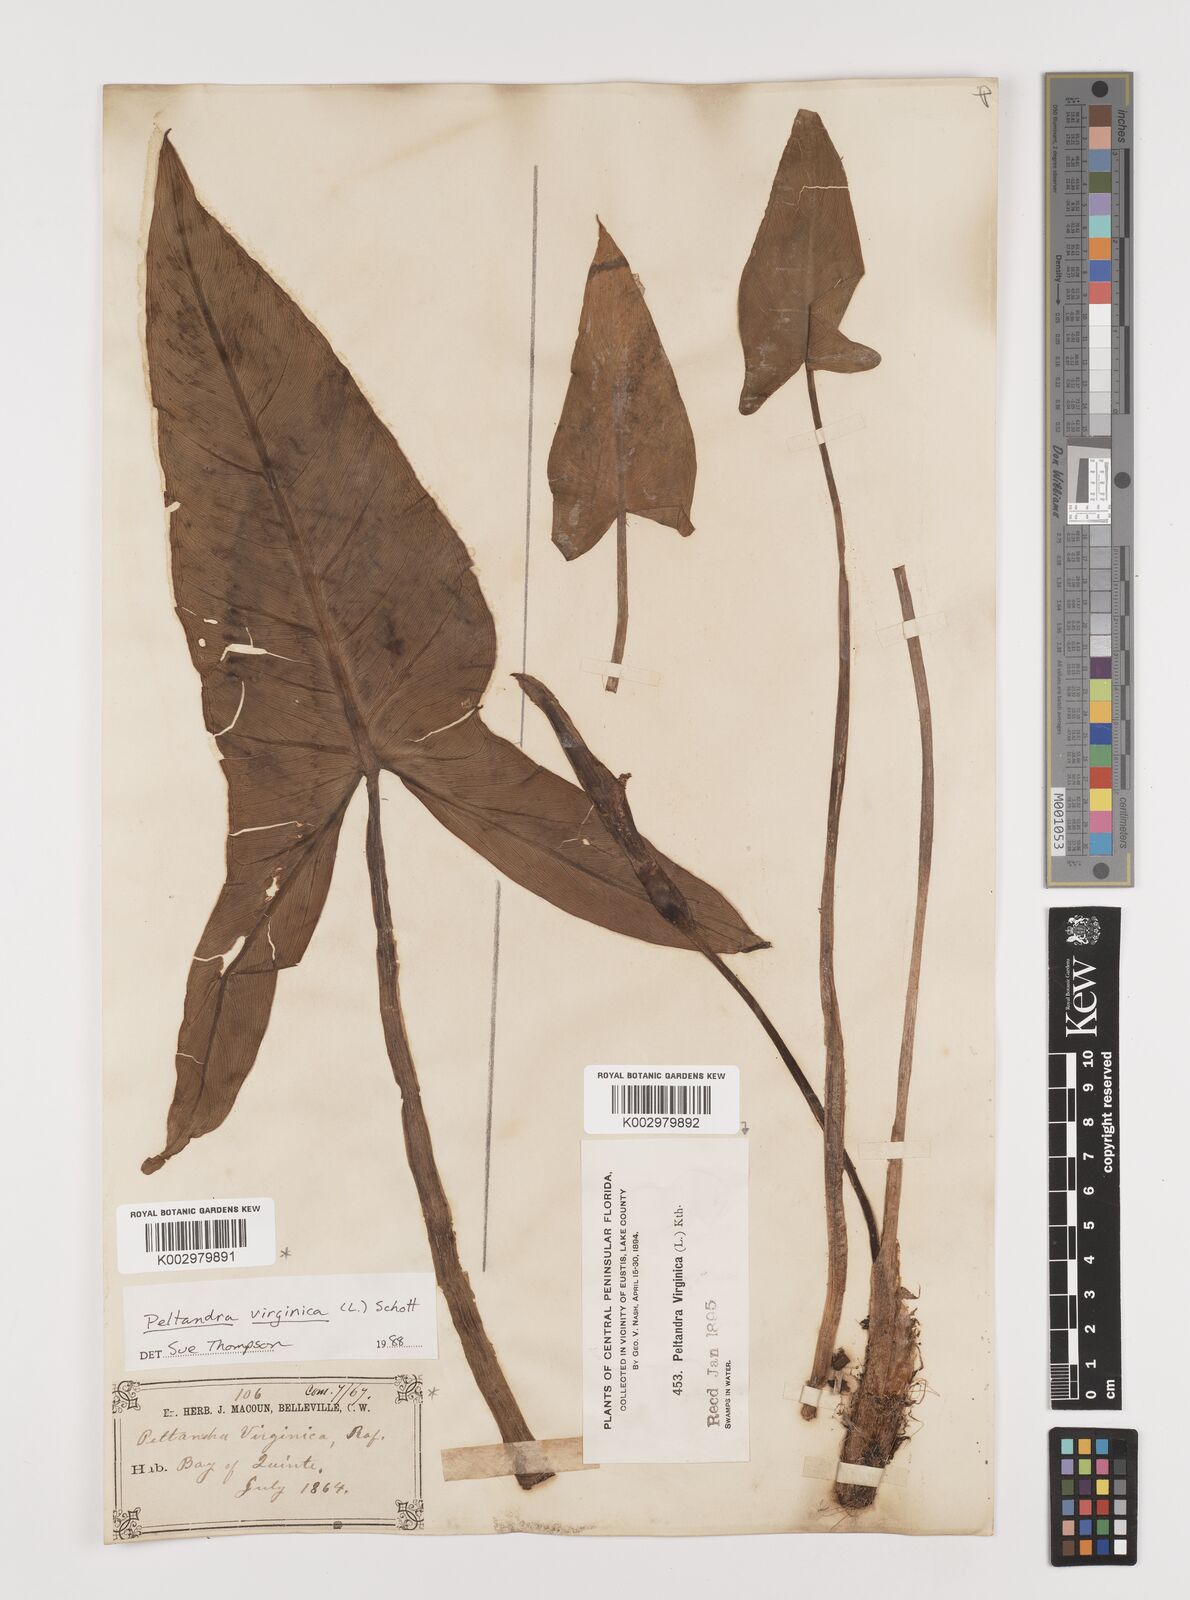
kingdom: Plantae
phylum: Tracheophyta
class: Liliopsida
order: Alismatales
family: Araceae
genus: Peltandra
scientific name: Peltandra virginica
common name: Arrow arum
